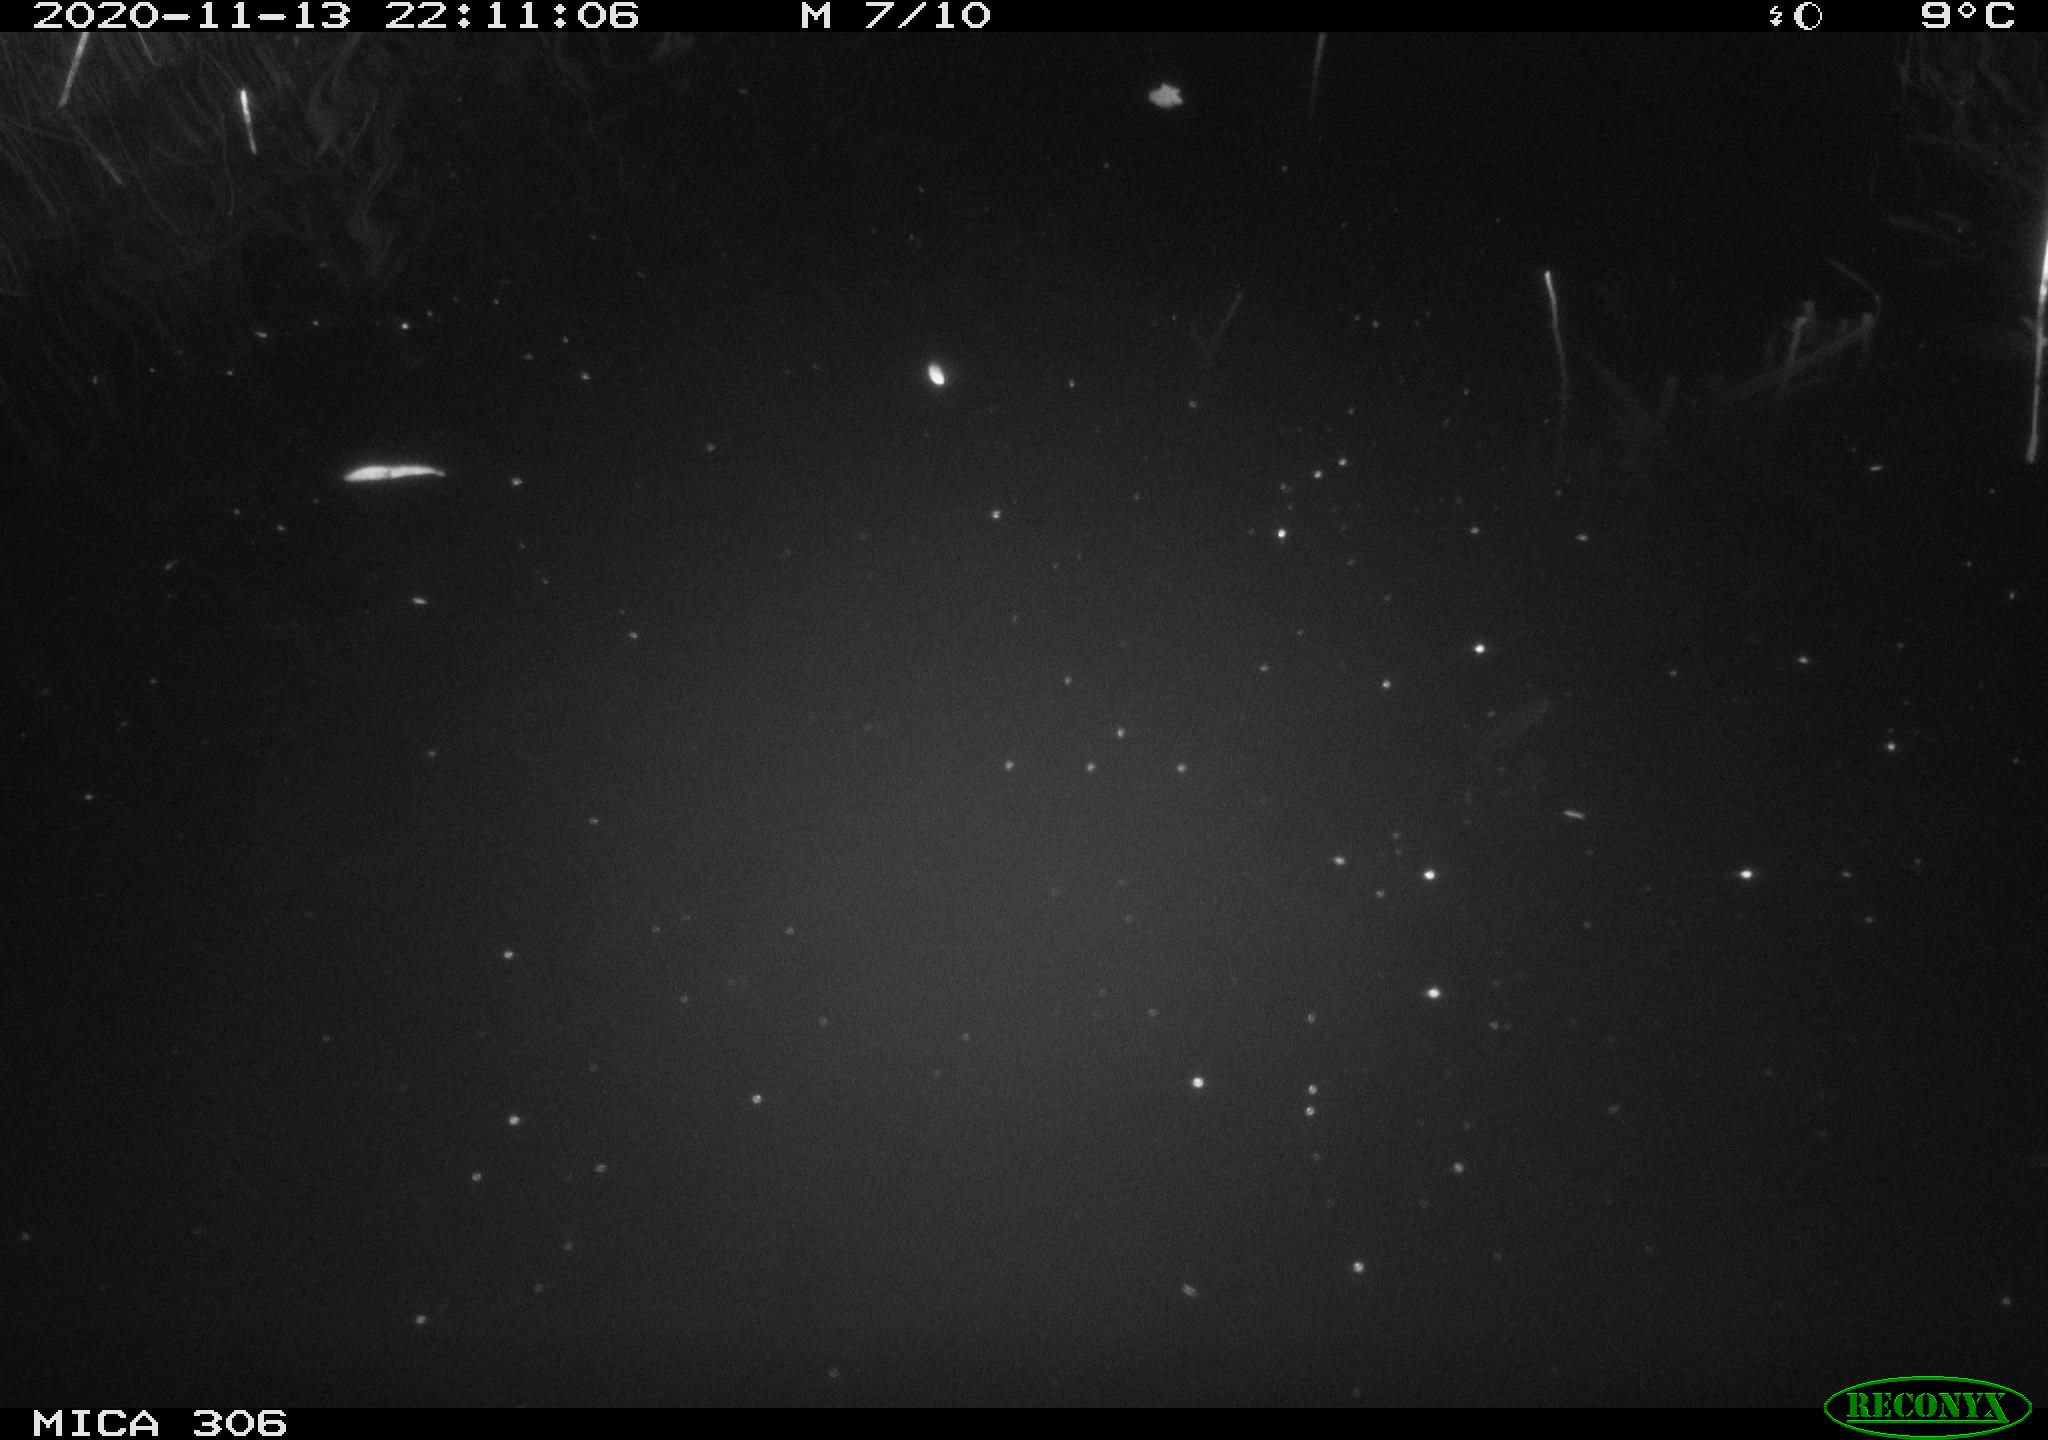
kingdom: Animalia
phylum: Chordata
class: Mammalia
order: Rodentia
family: Muridae
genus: Rattus
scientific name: Rattus norvegicus
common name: Brown rat
